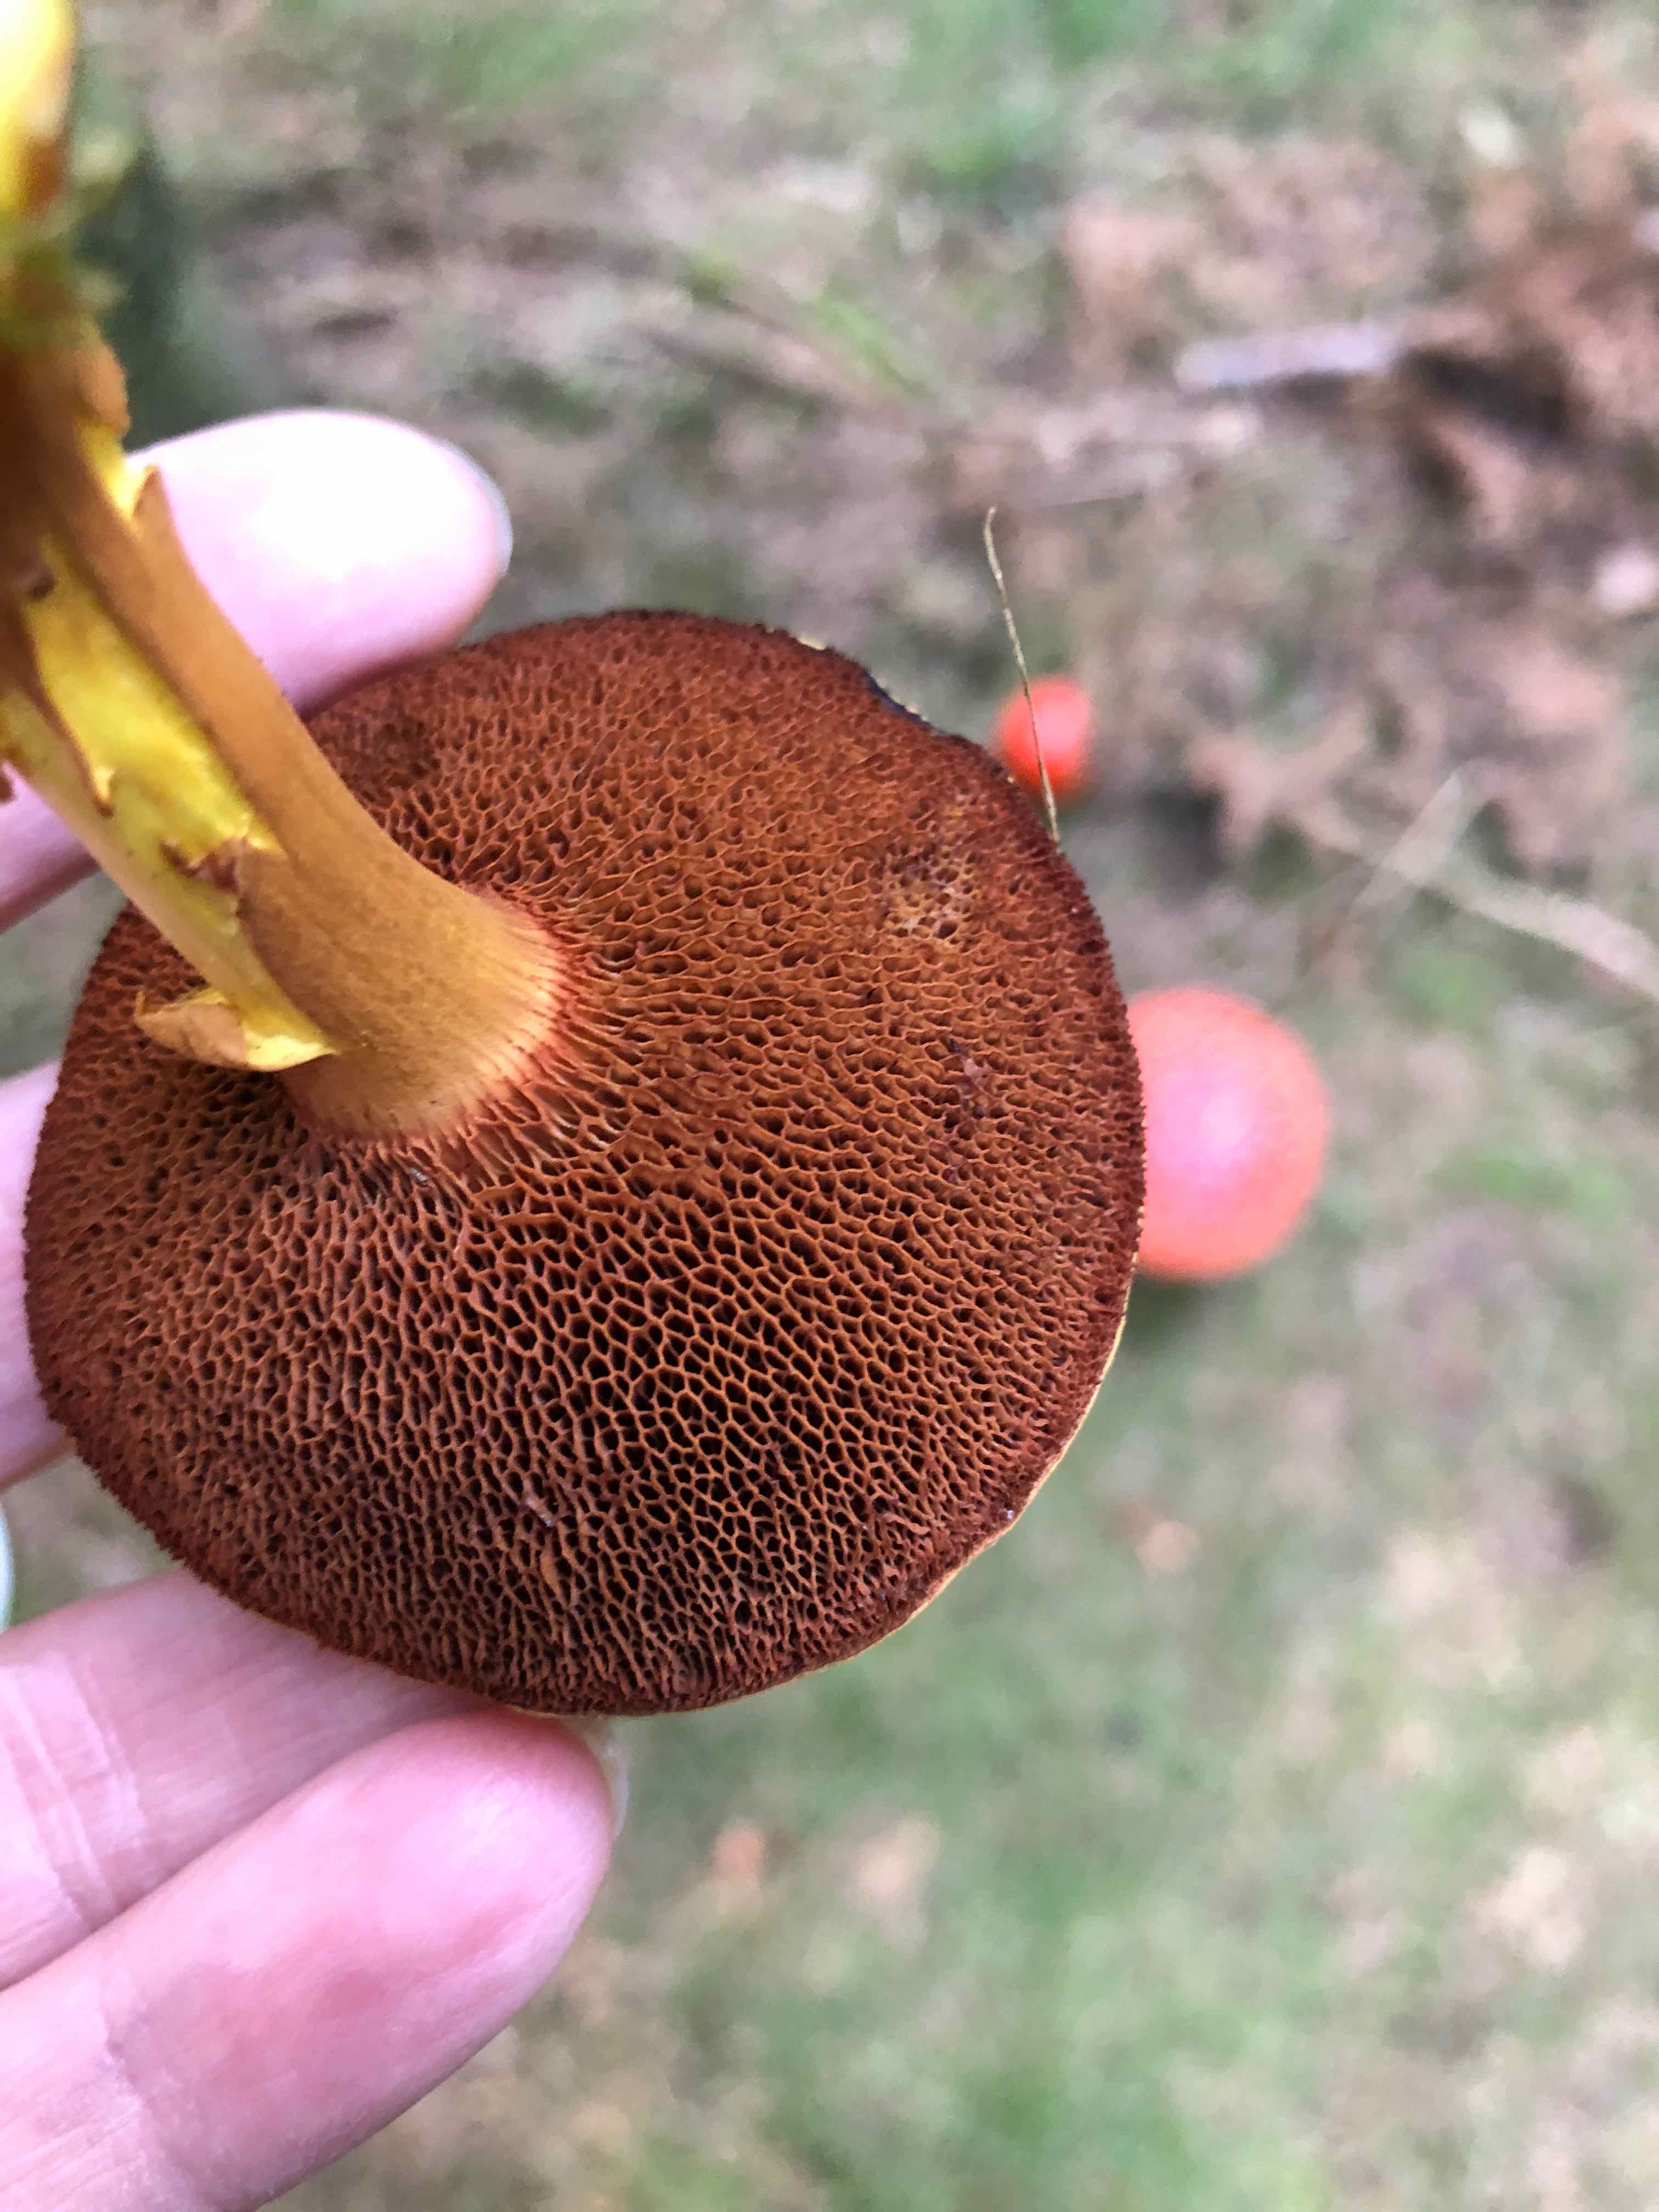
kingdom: Fungi
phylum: Basidiomycota
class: Agaricomycetes
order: Boletales
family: Boletaceae
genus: Chalciporus
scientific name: Chalciporus piperatus
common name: peberrørhat
